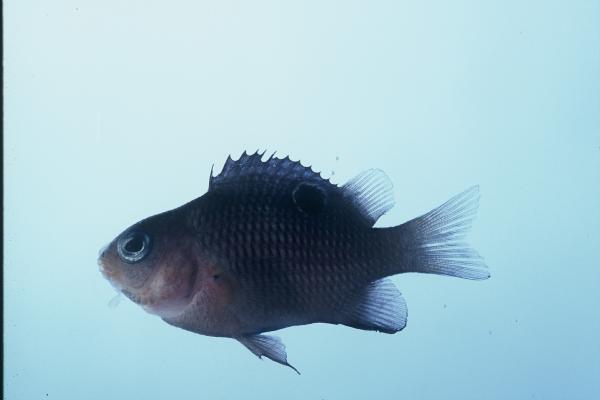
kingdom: Animalia
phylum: Chordata
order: Perciformes
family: Pomacentridae
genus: Plectroglyphidodon
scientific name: Plectroglyphidodon leucozonus
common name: White-band damsel
